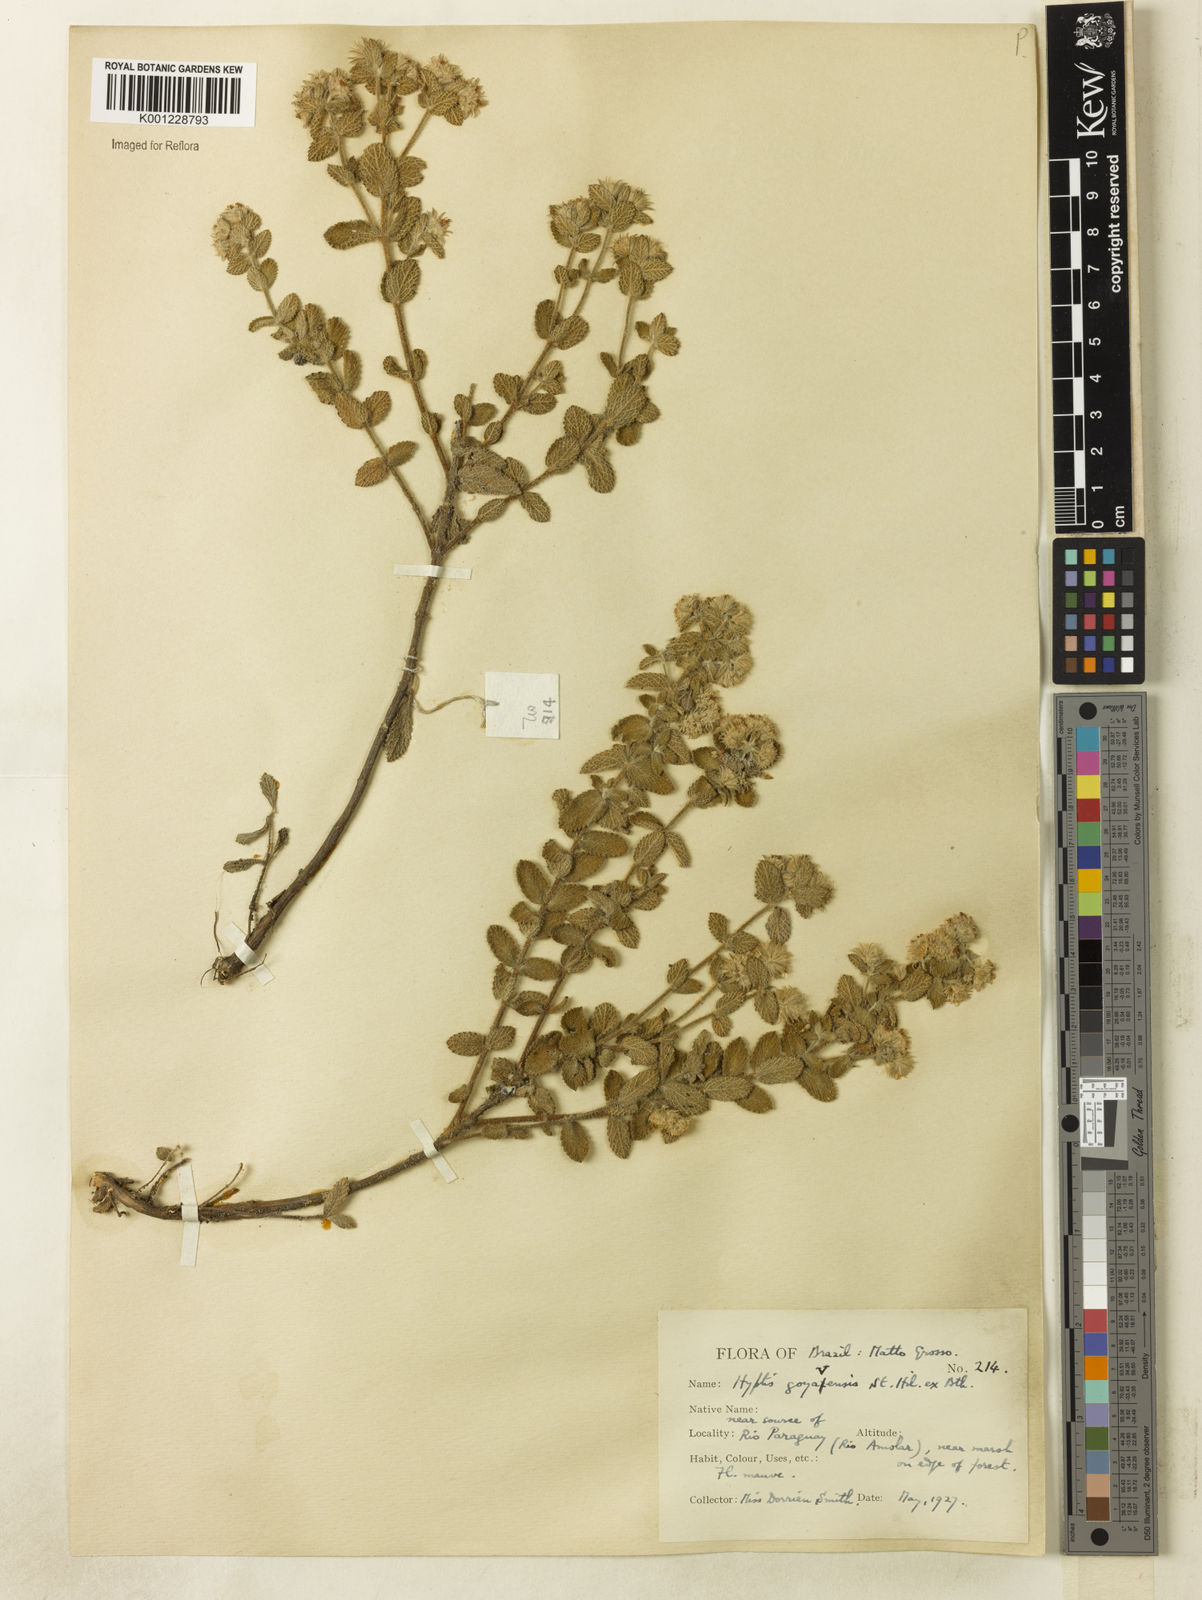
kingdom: Plantae
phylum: Tracheophyta
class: Magnoliopsida
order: Lamiales
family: Lamiaceae
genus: Hyptis
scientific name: Hyptis goyazensis
